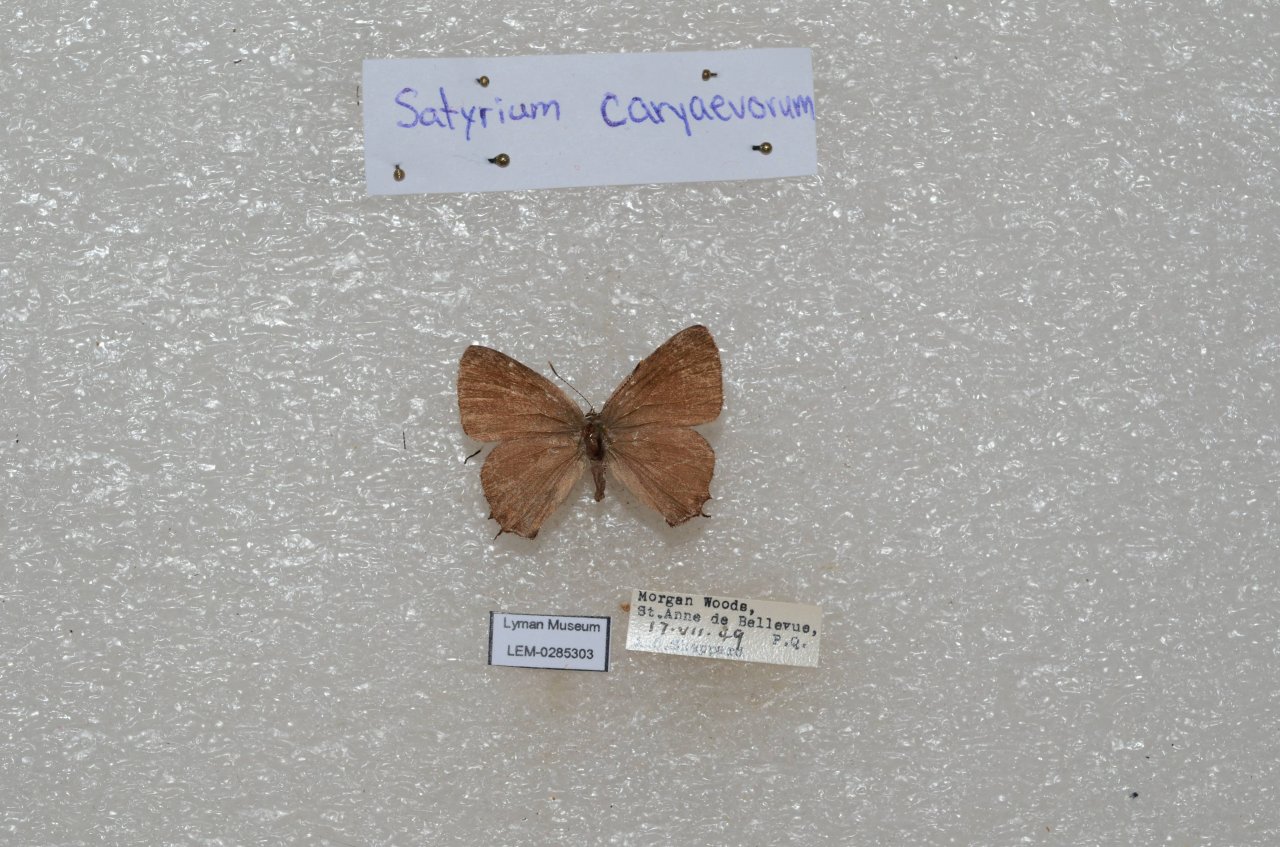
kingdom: Animalia
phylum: Arthropoda
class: Insecta
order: Lepidoptera
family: Lycaenidae
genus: Satyrium
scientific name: Satyrium calanus
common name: Banded Hairstreak
